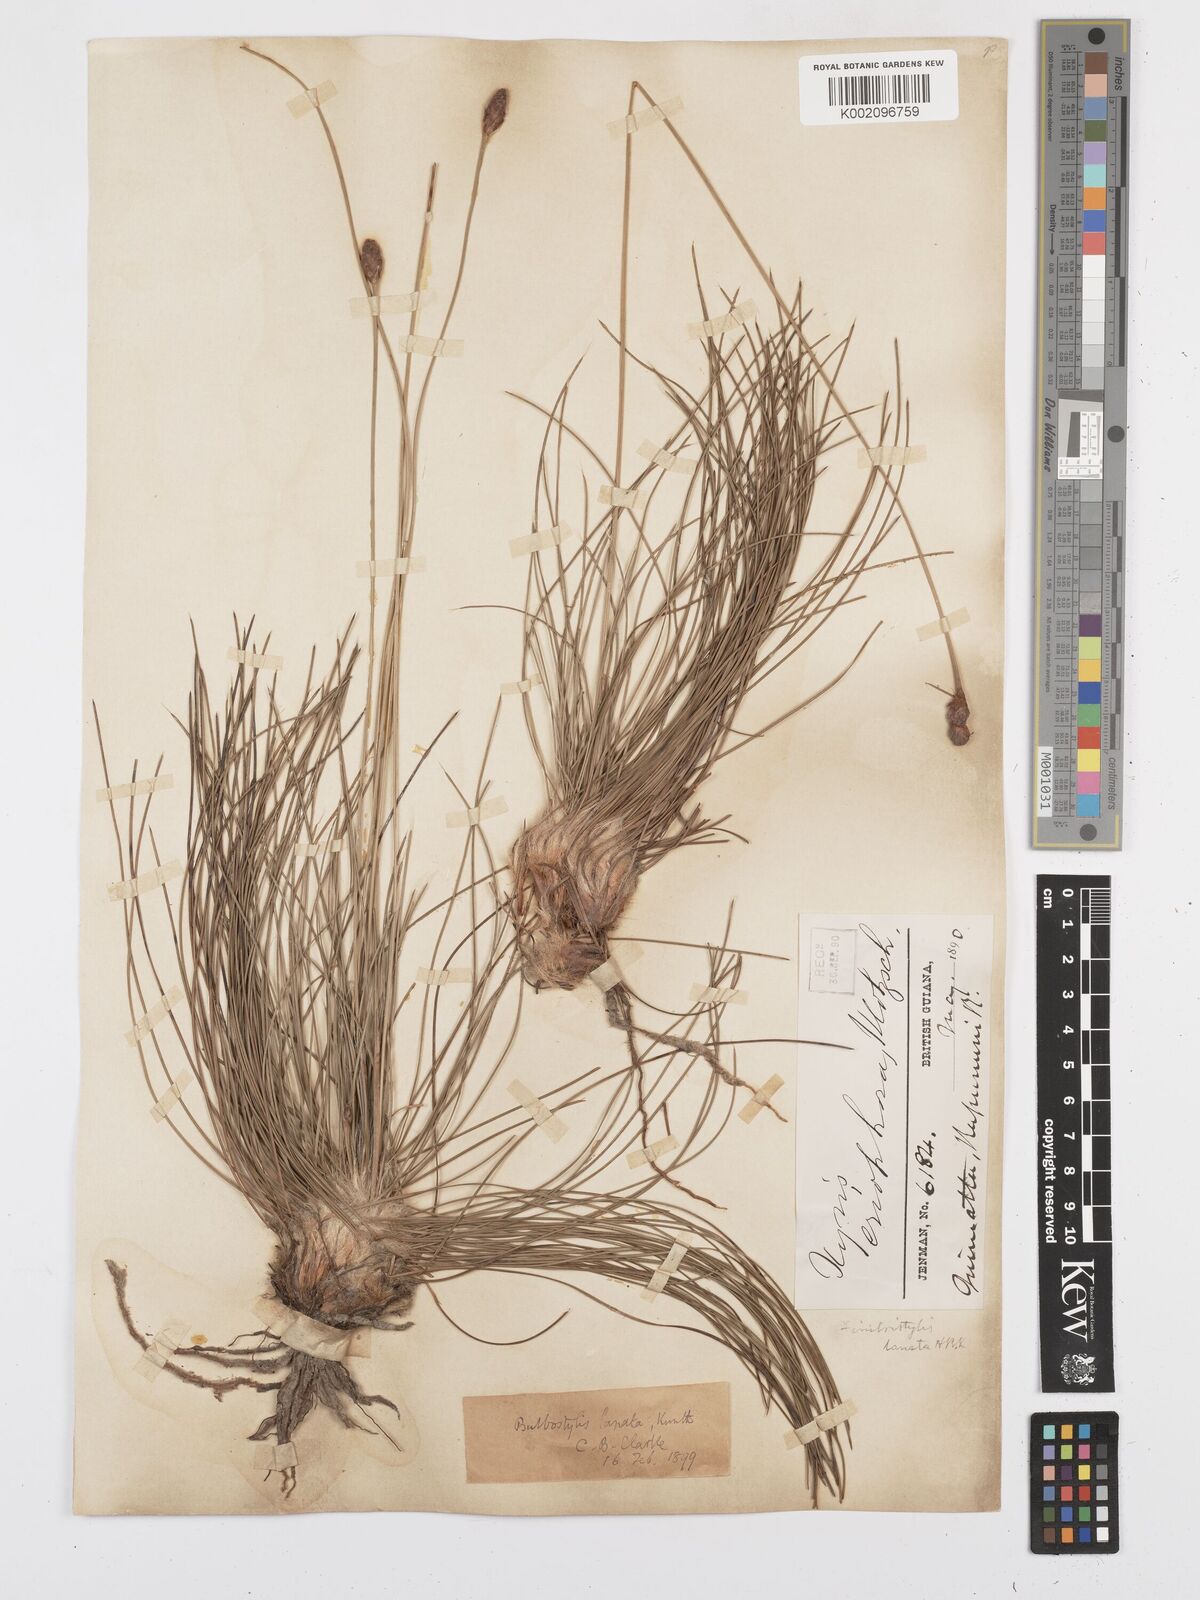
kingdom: Plantae
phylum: Tracheophyta
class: Liliopsida
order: Poales
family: Cyperaceae
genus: Bulbostylis
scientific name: Bulbostylis
